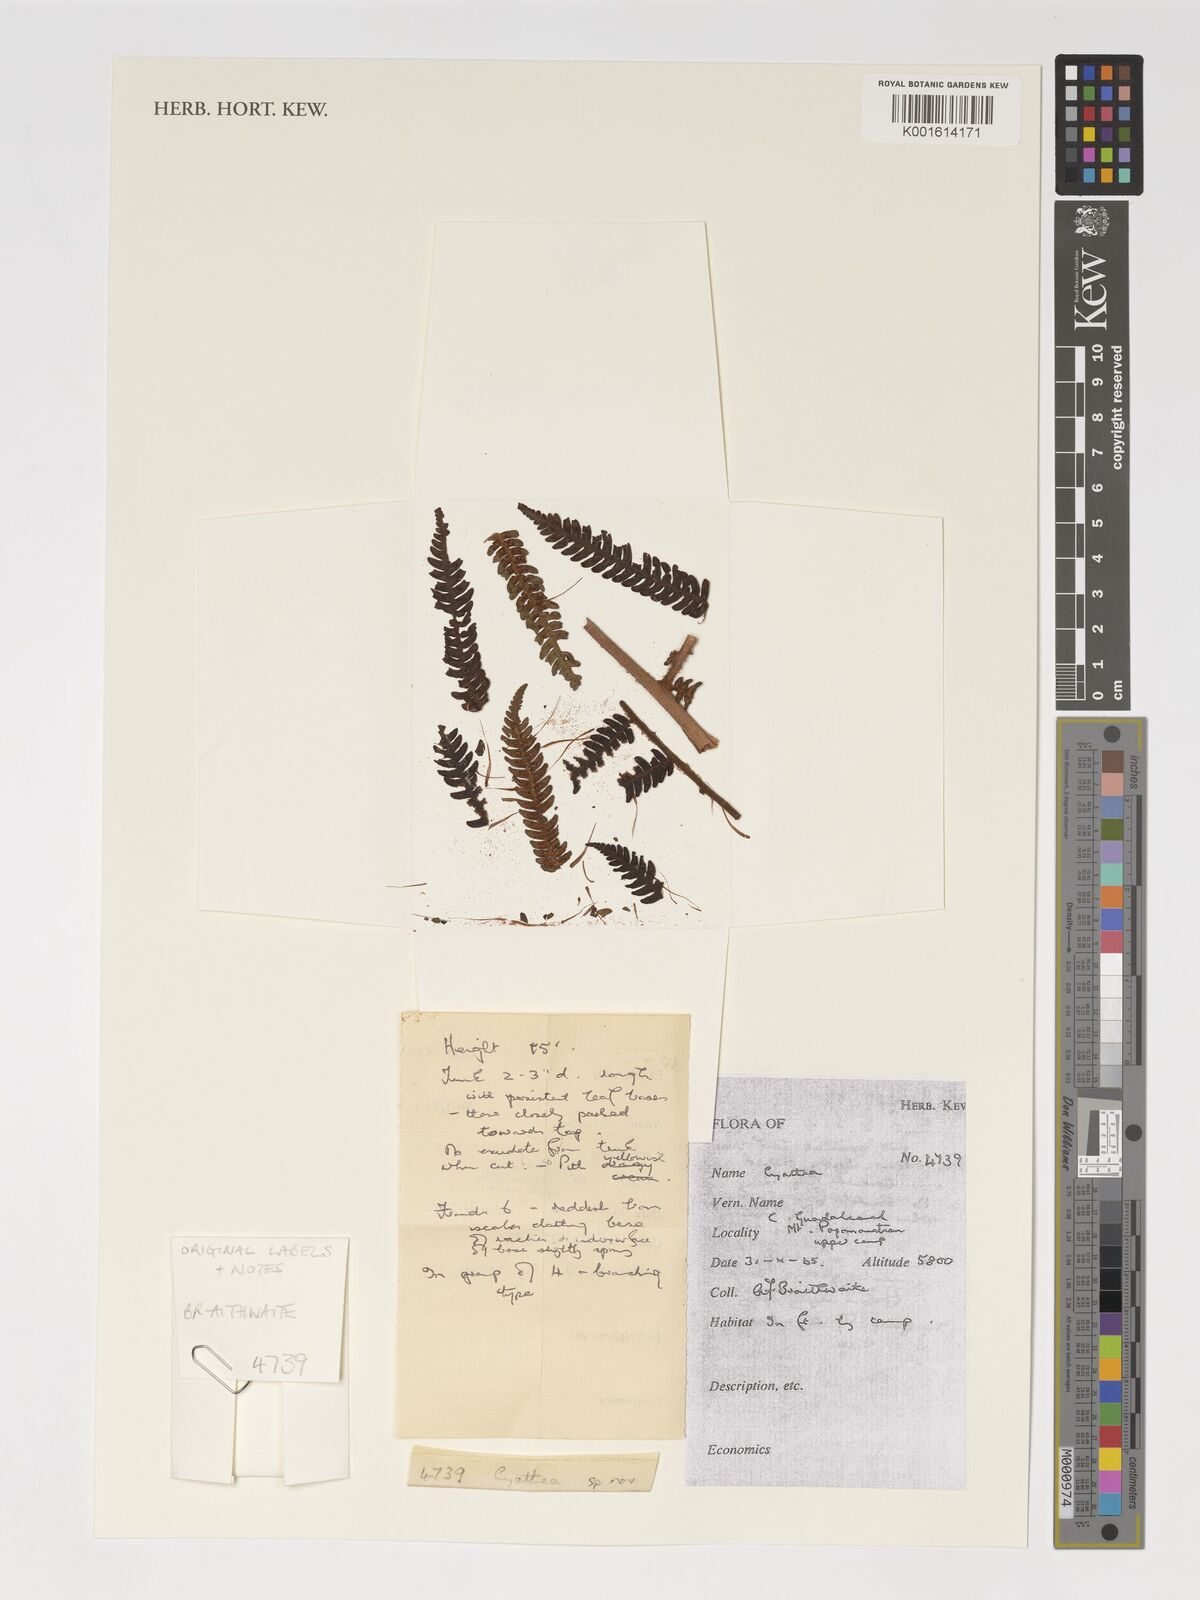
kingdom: Plantae
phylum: Tracheophyta
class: Polypodiopsida
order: Cyatheales
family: Cyatheaceae
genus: Cyathea
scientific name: Cyathea
